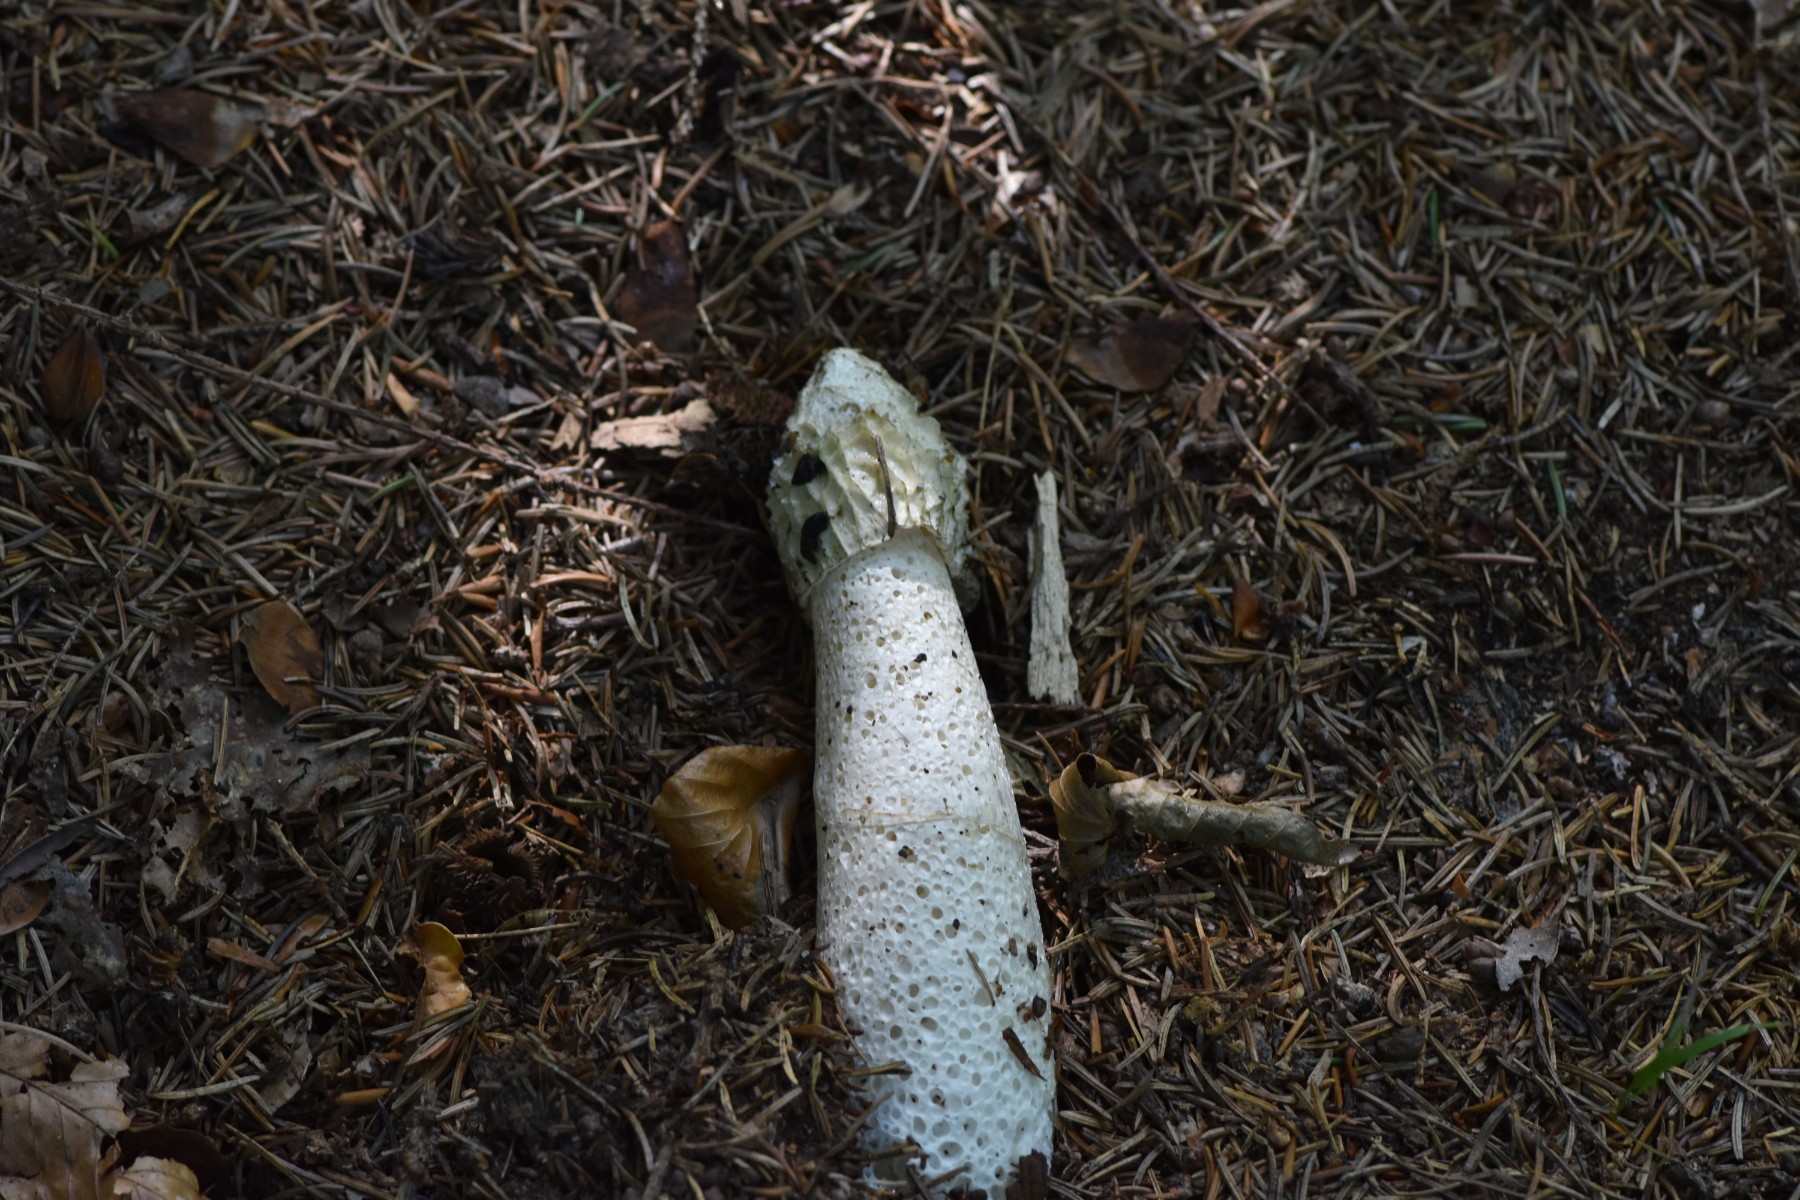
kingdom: Fungi
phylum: Basidiomycota
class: Agaricomycetes
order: Phallales
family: Phallaceae
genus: Phallus
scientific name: Phallus impudicus
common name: almindelig stinksvamp
